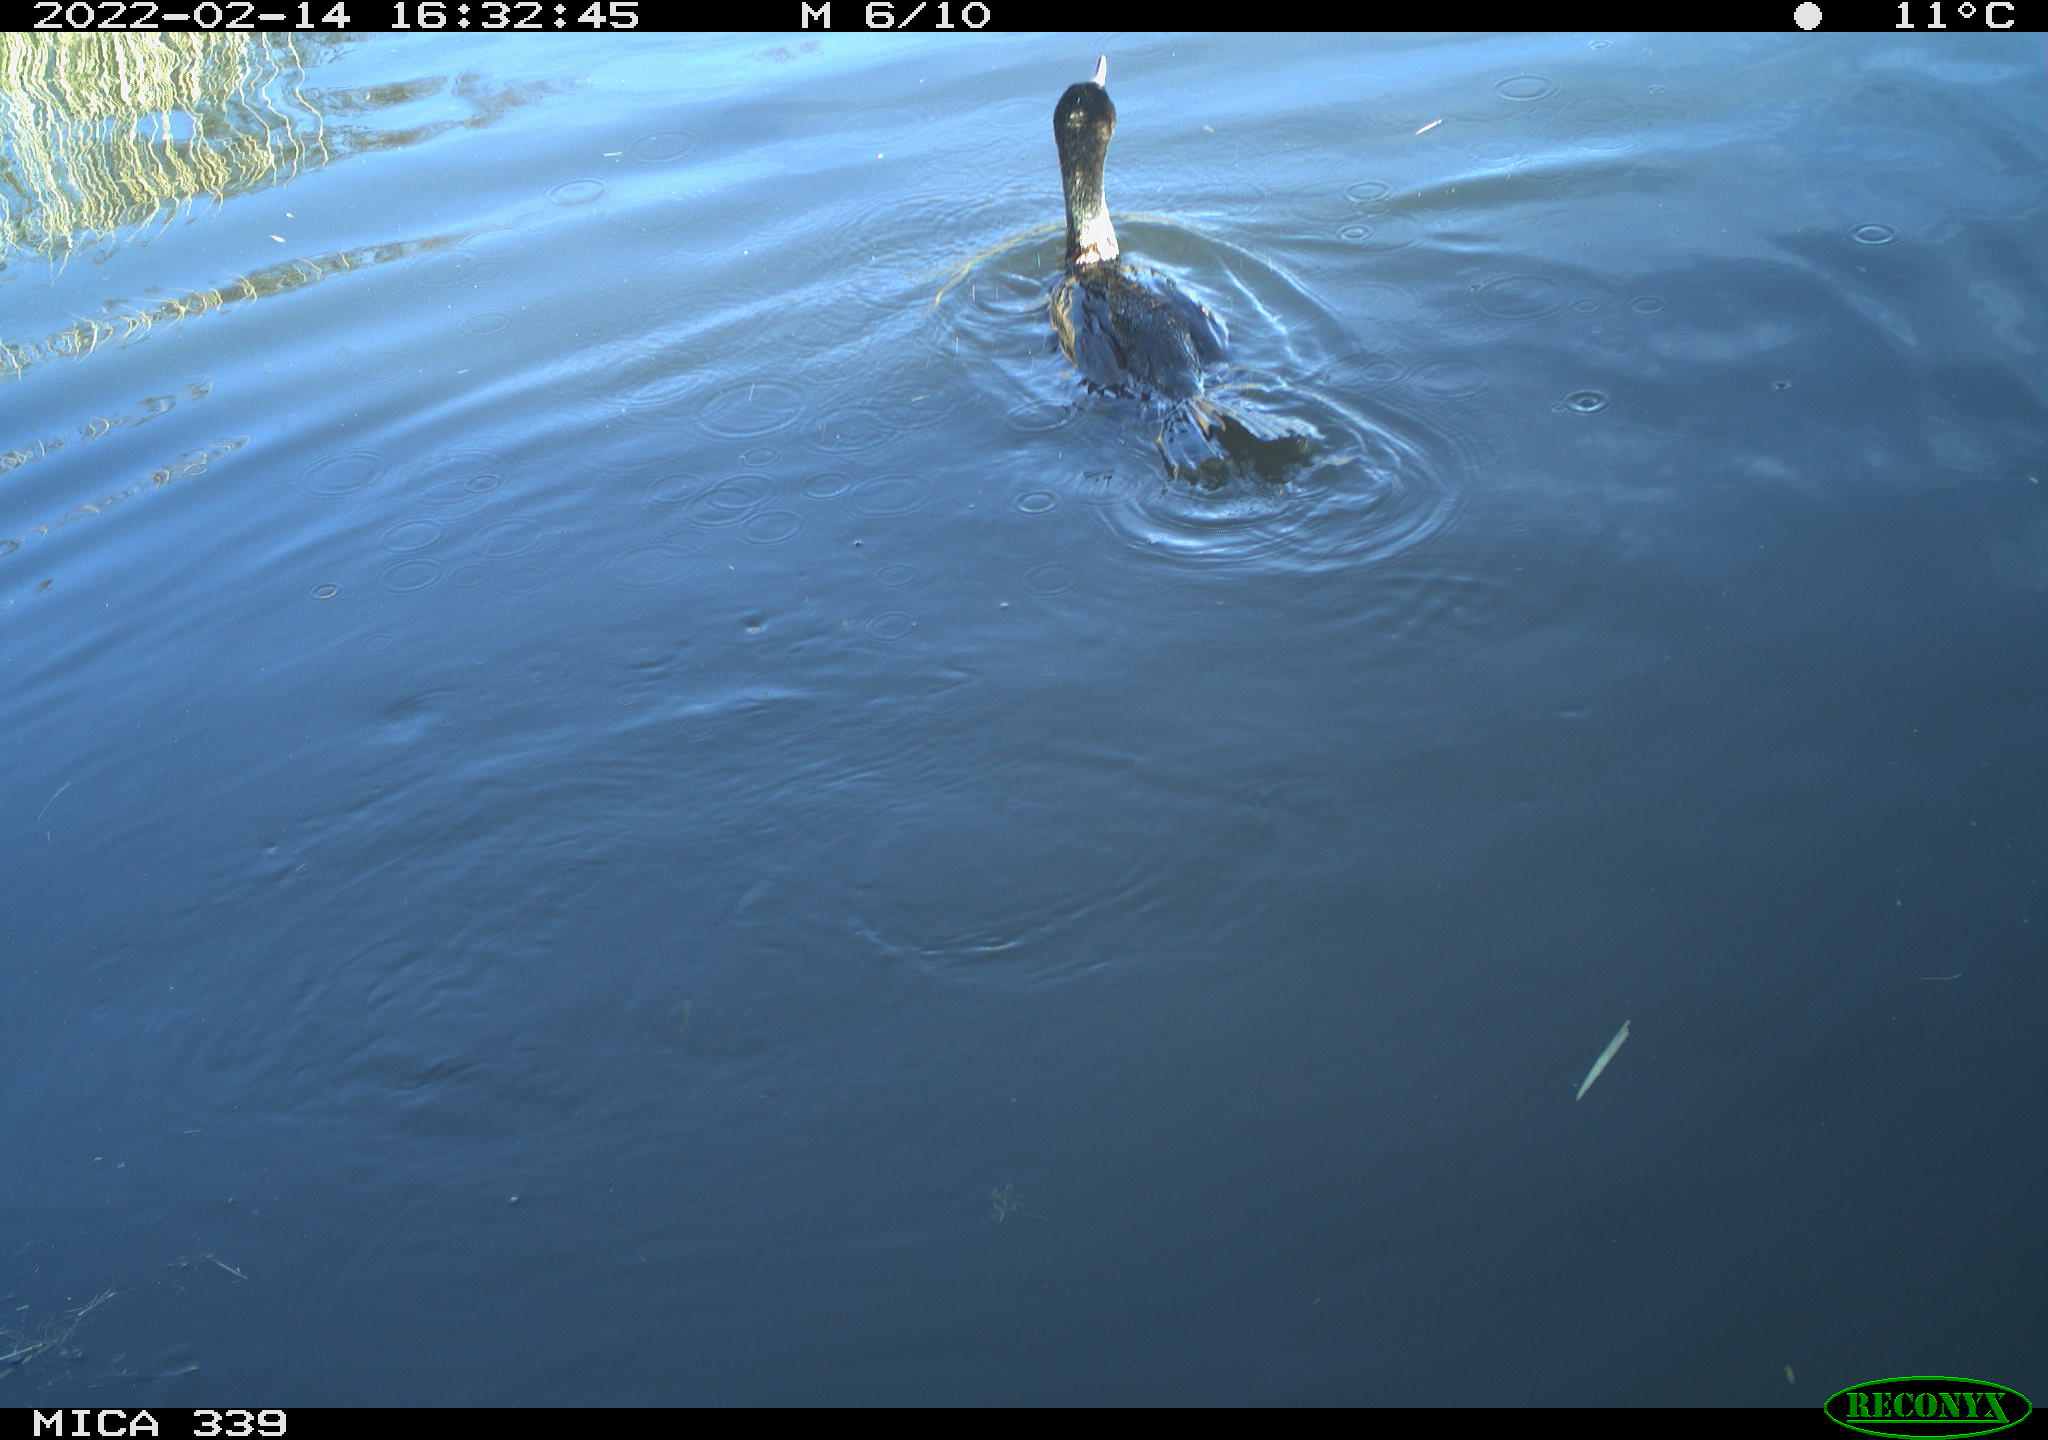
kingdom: Animalia
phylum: Chordata
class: Aves
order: Suliformes
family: Phalacrocoracidae
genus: Phalacrocorax
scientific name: Phalacrocorax carbo
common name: Great cormorant
